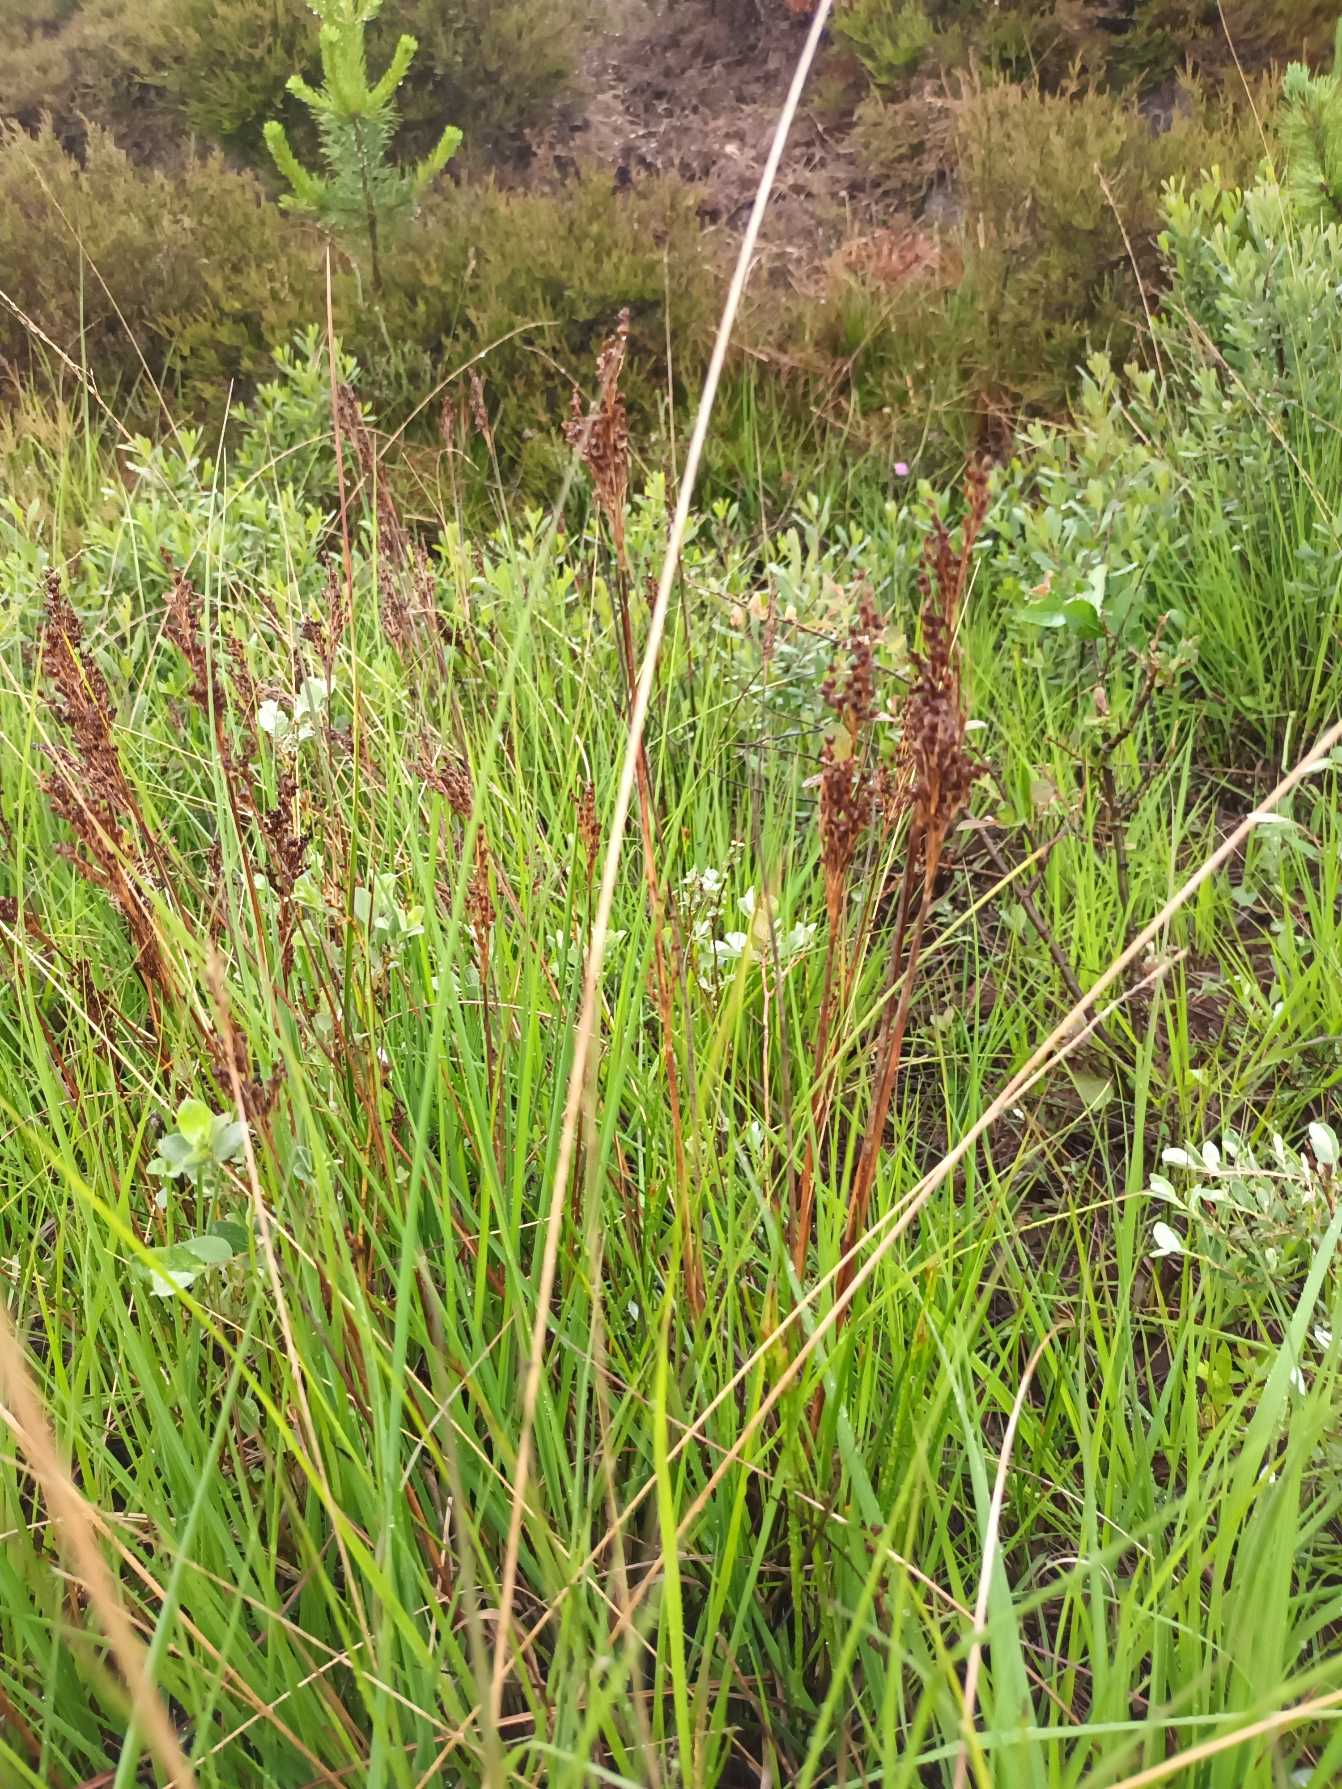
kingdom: Plantae
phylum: Tracheophyta
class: Liliopsida
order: Poales
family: Juncaceae
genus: Juncus
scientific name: Juncus anceps
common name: Sand-siv
